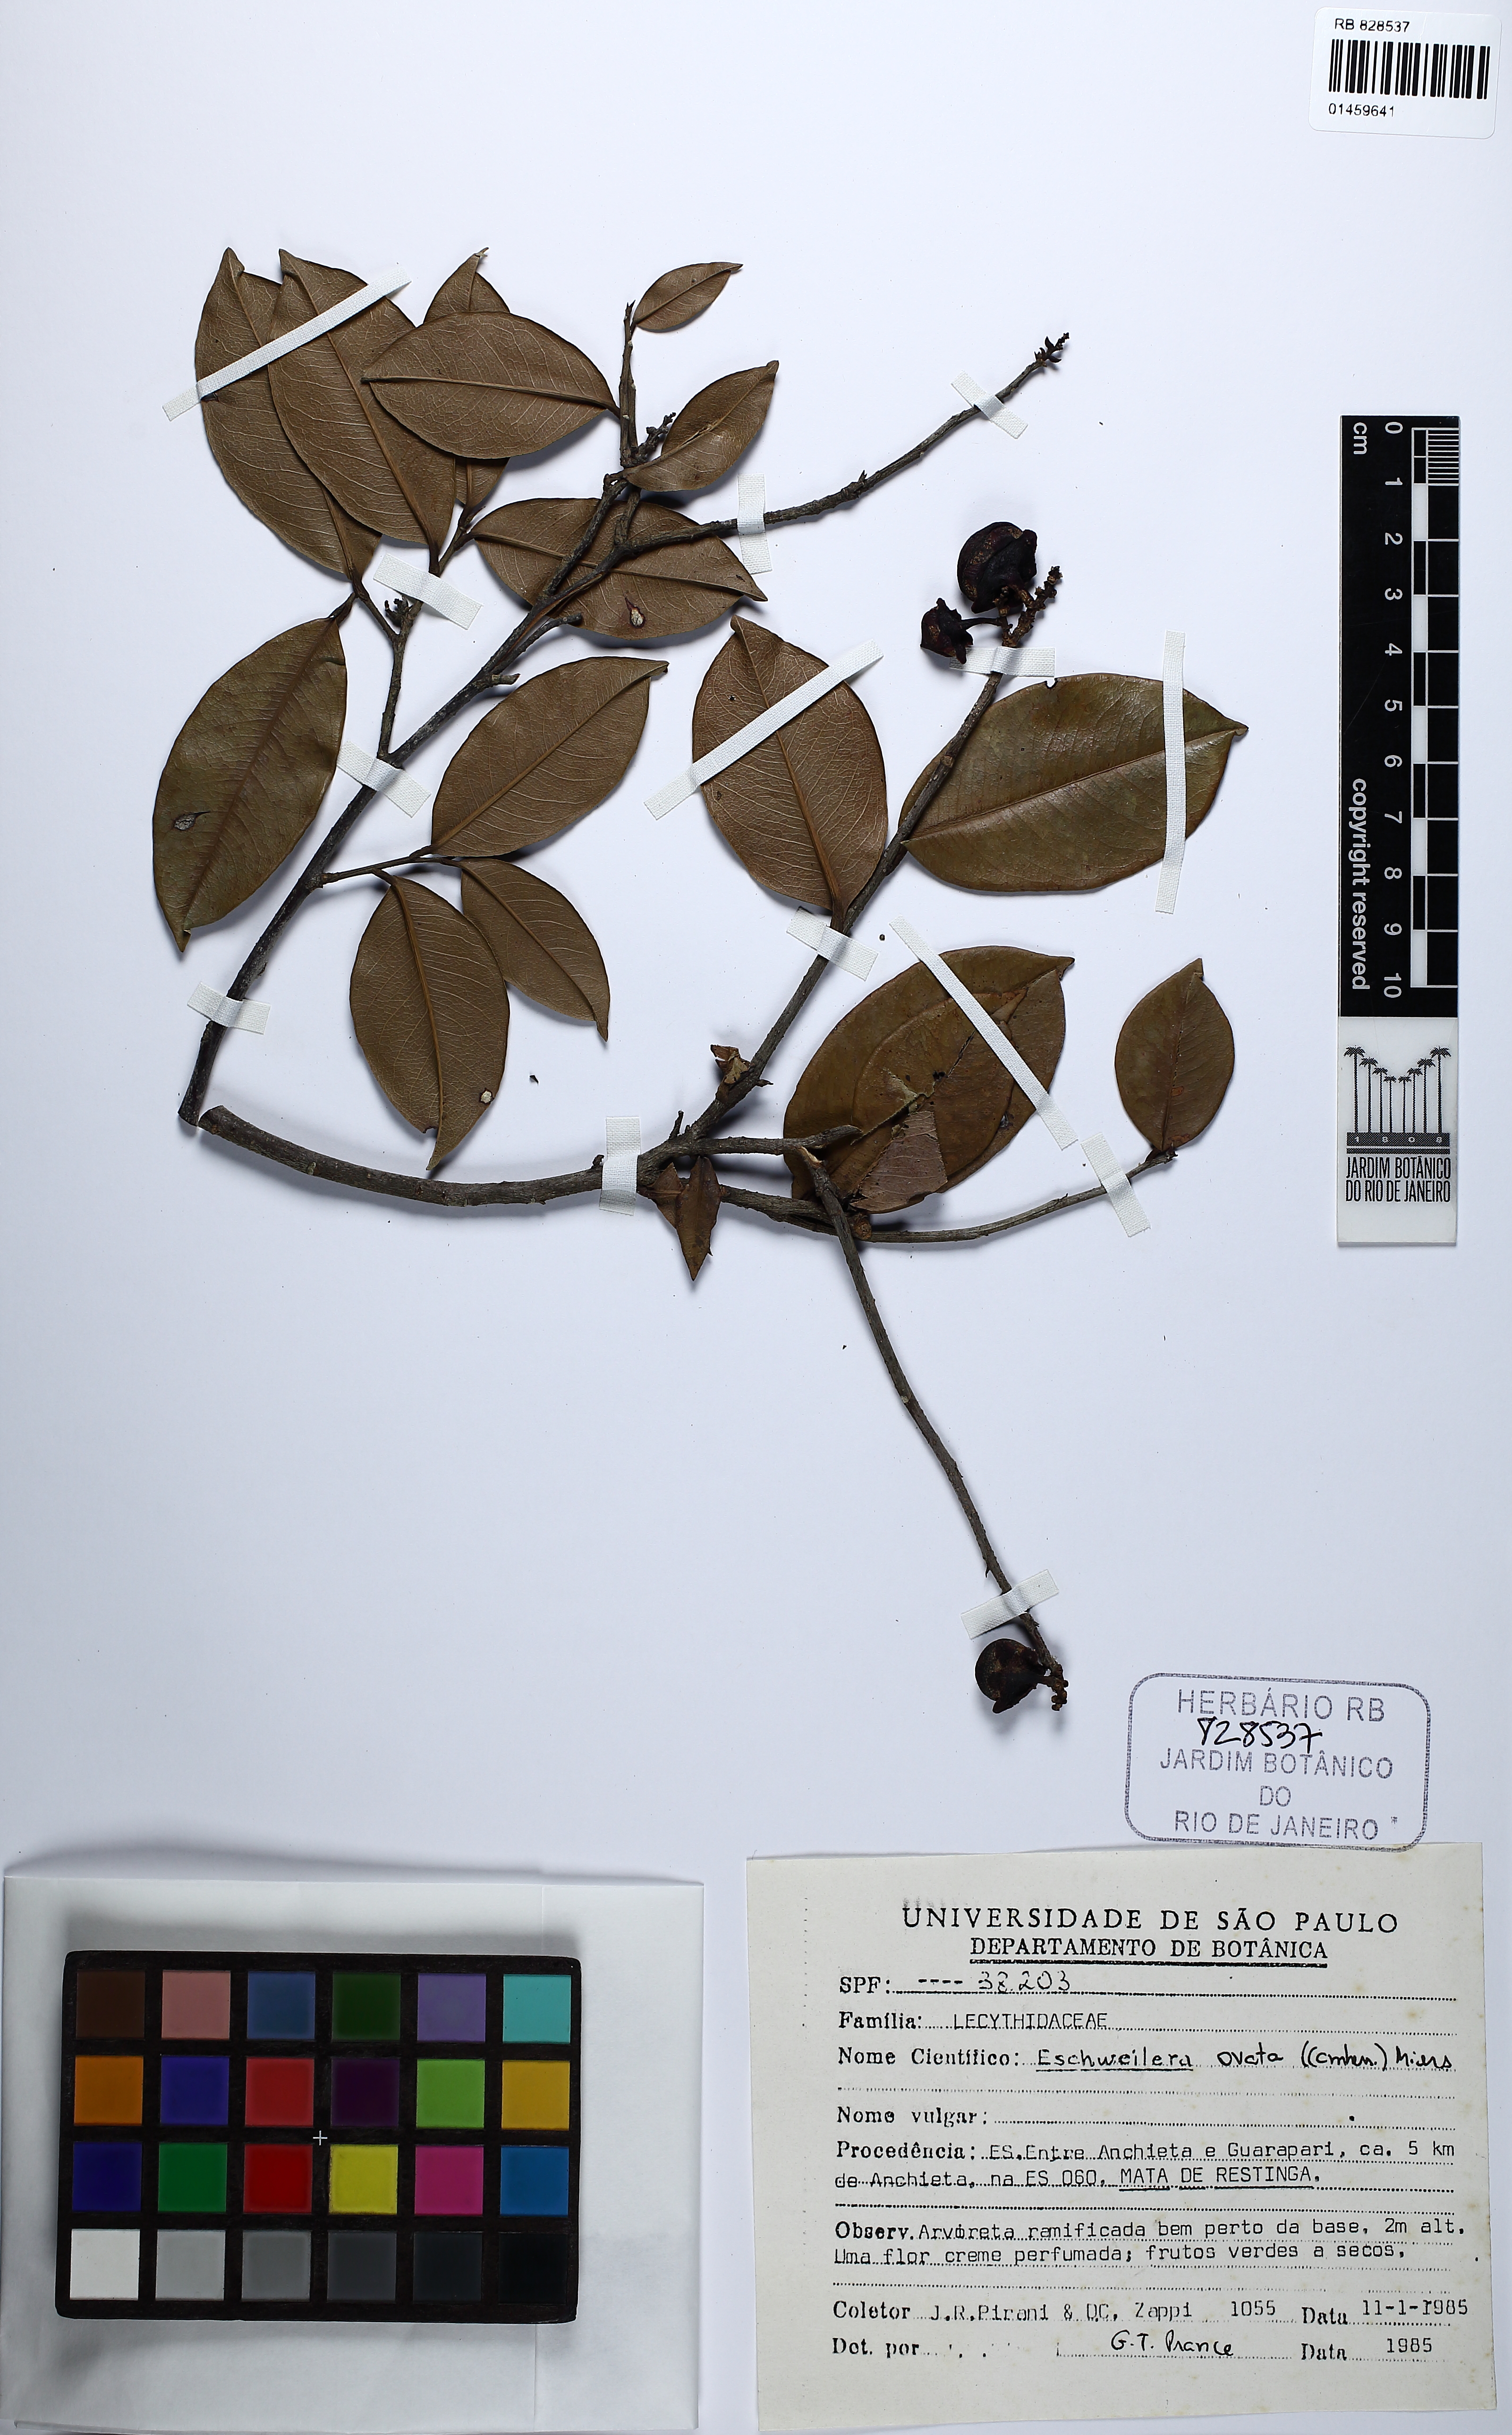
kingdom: Plantae
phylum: Tracheophyta
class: Magnoliopsida
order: Ericales
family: Lecythidaceae
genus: Eschweilera
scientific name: Eschweilera ovata
